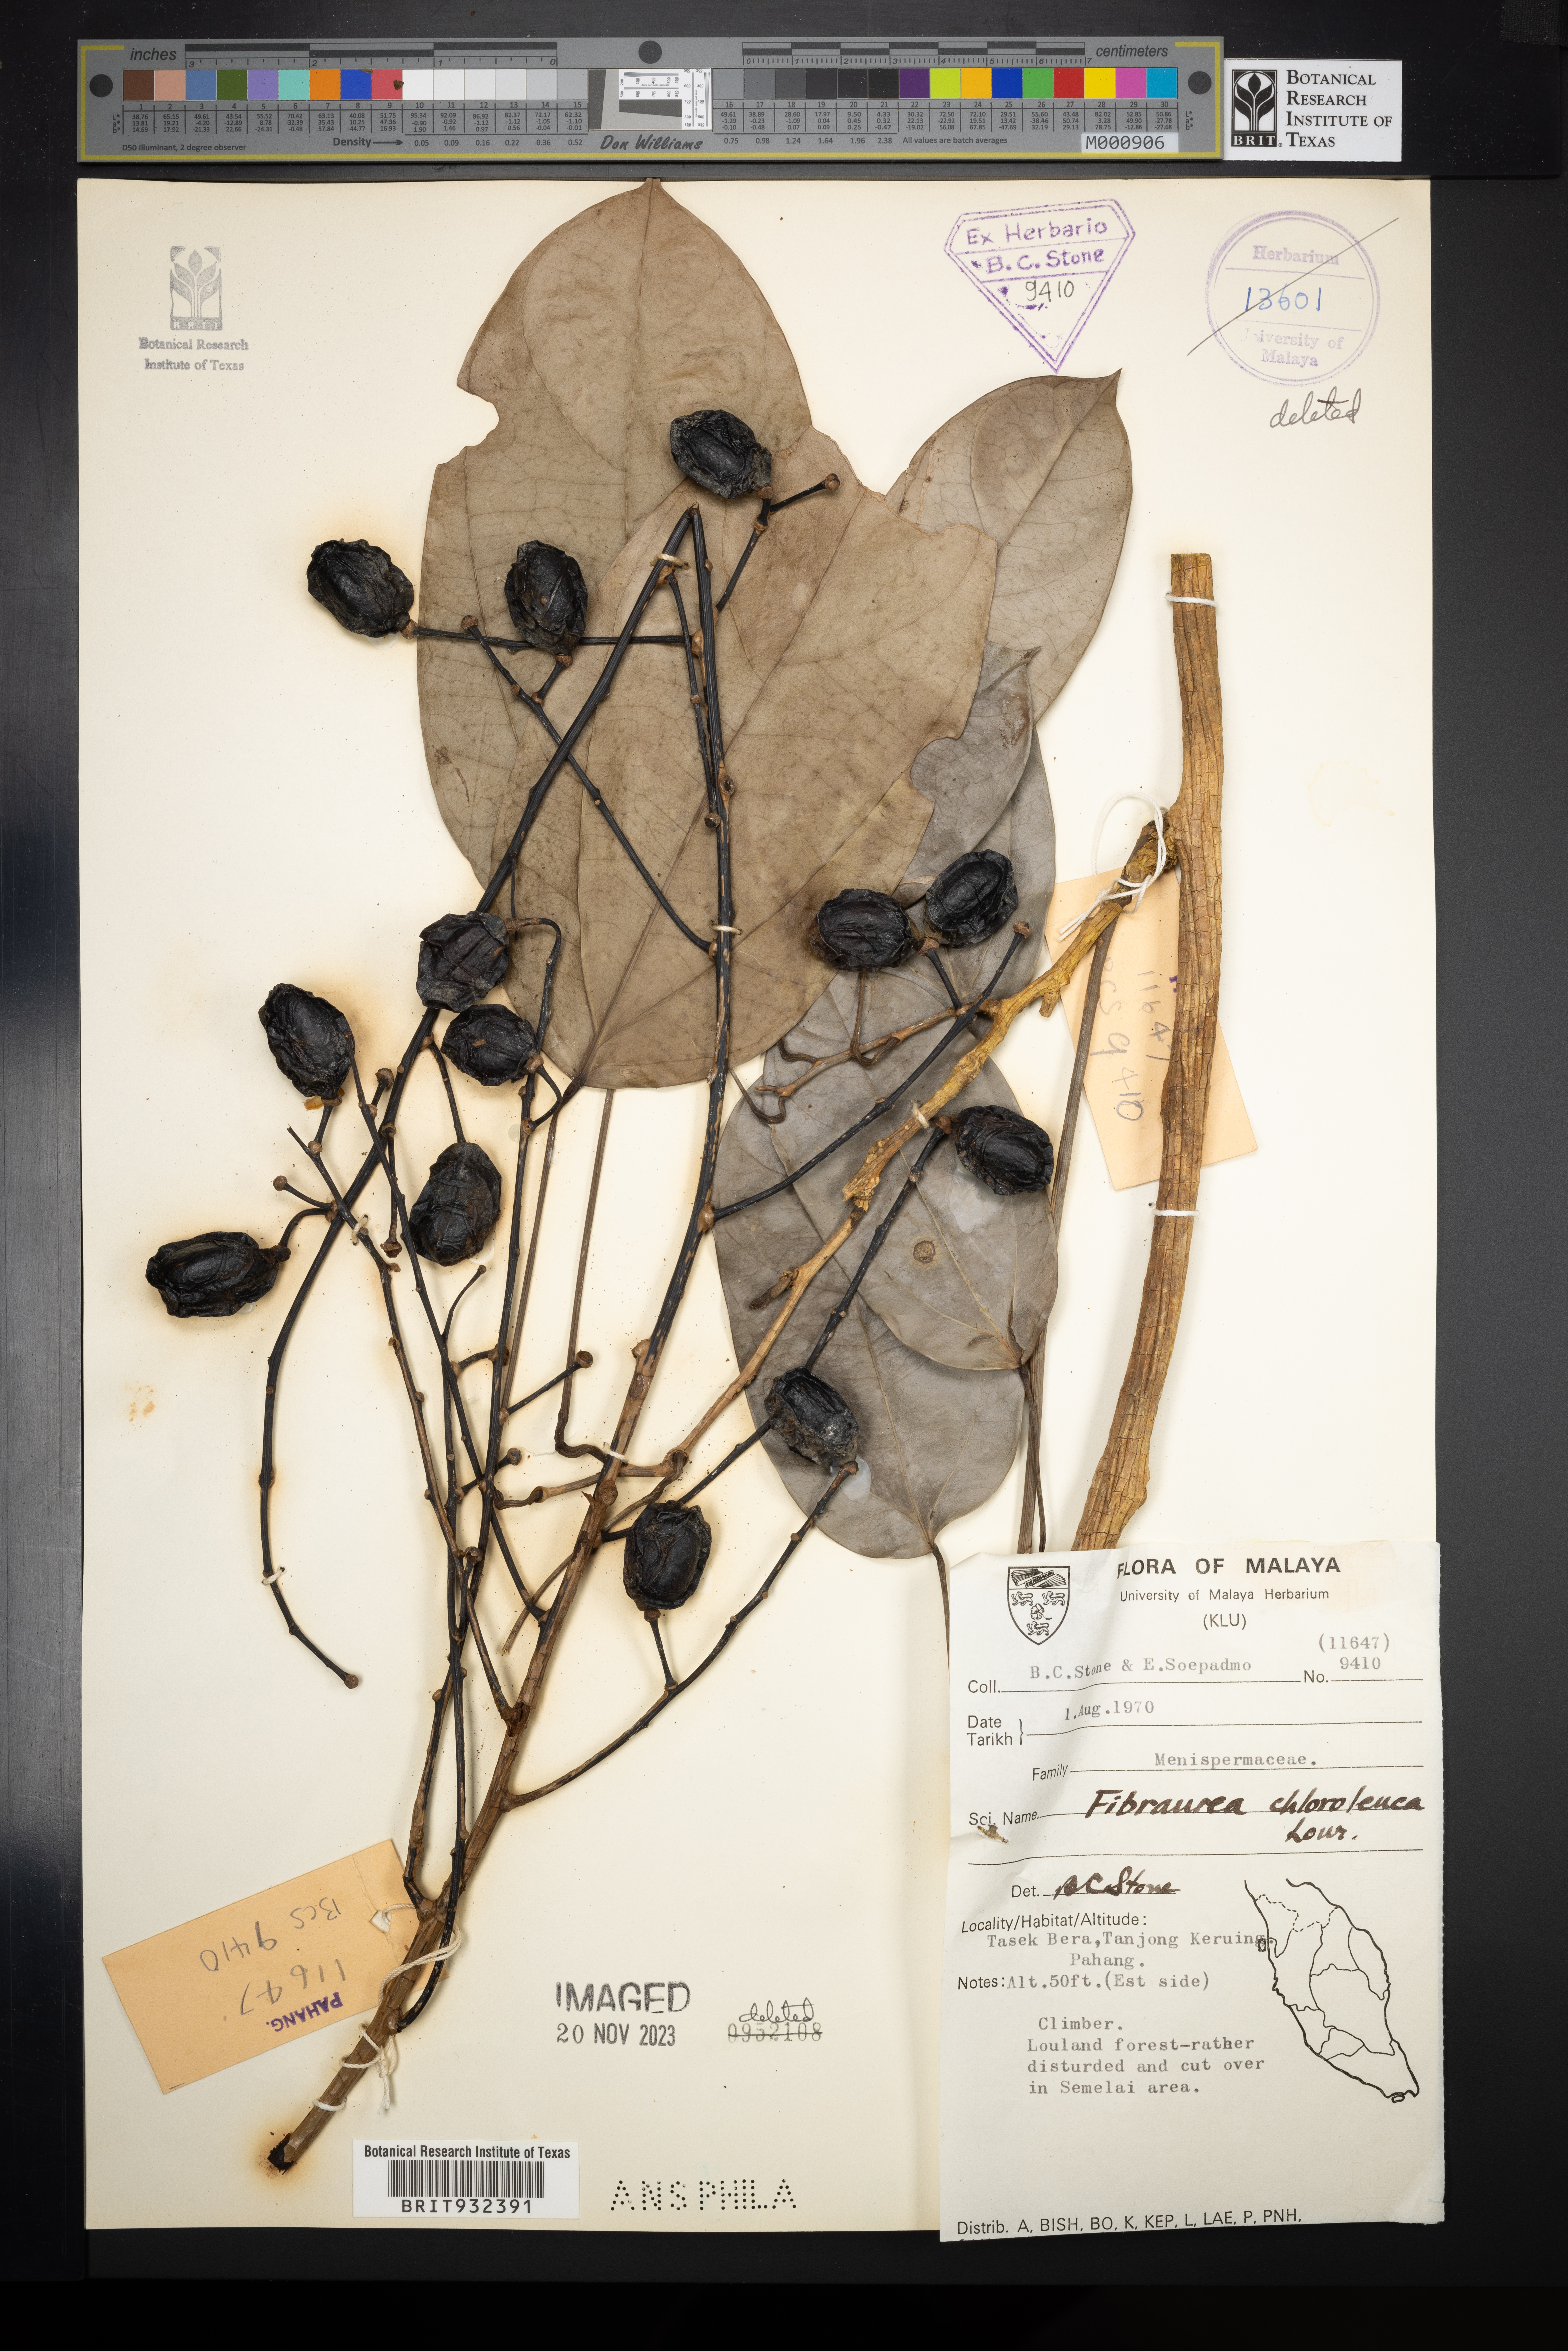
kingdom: Plantae
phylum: Tracheophyta
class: Magnoliopsida
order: Ranunculales
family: Menispermaceae
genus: Fibraurea
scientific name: Fibraurea
